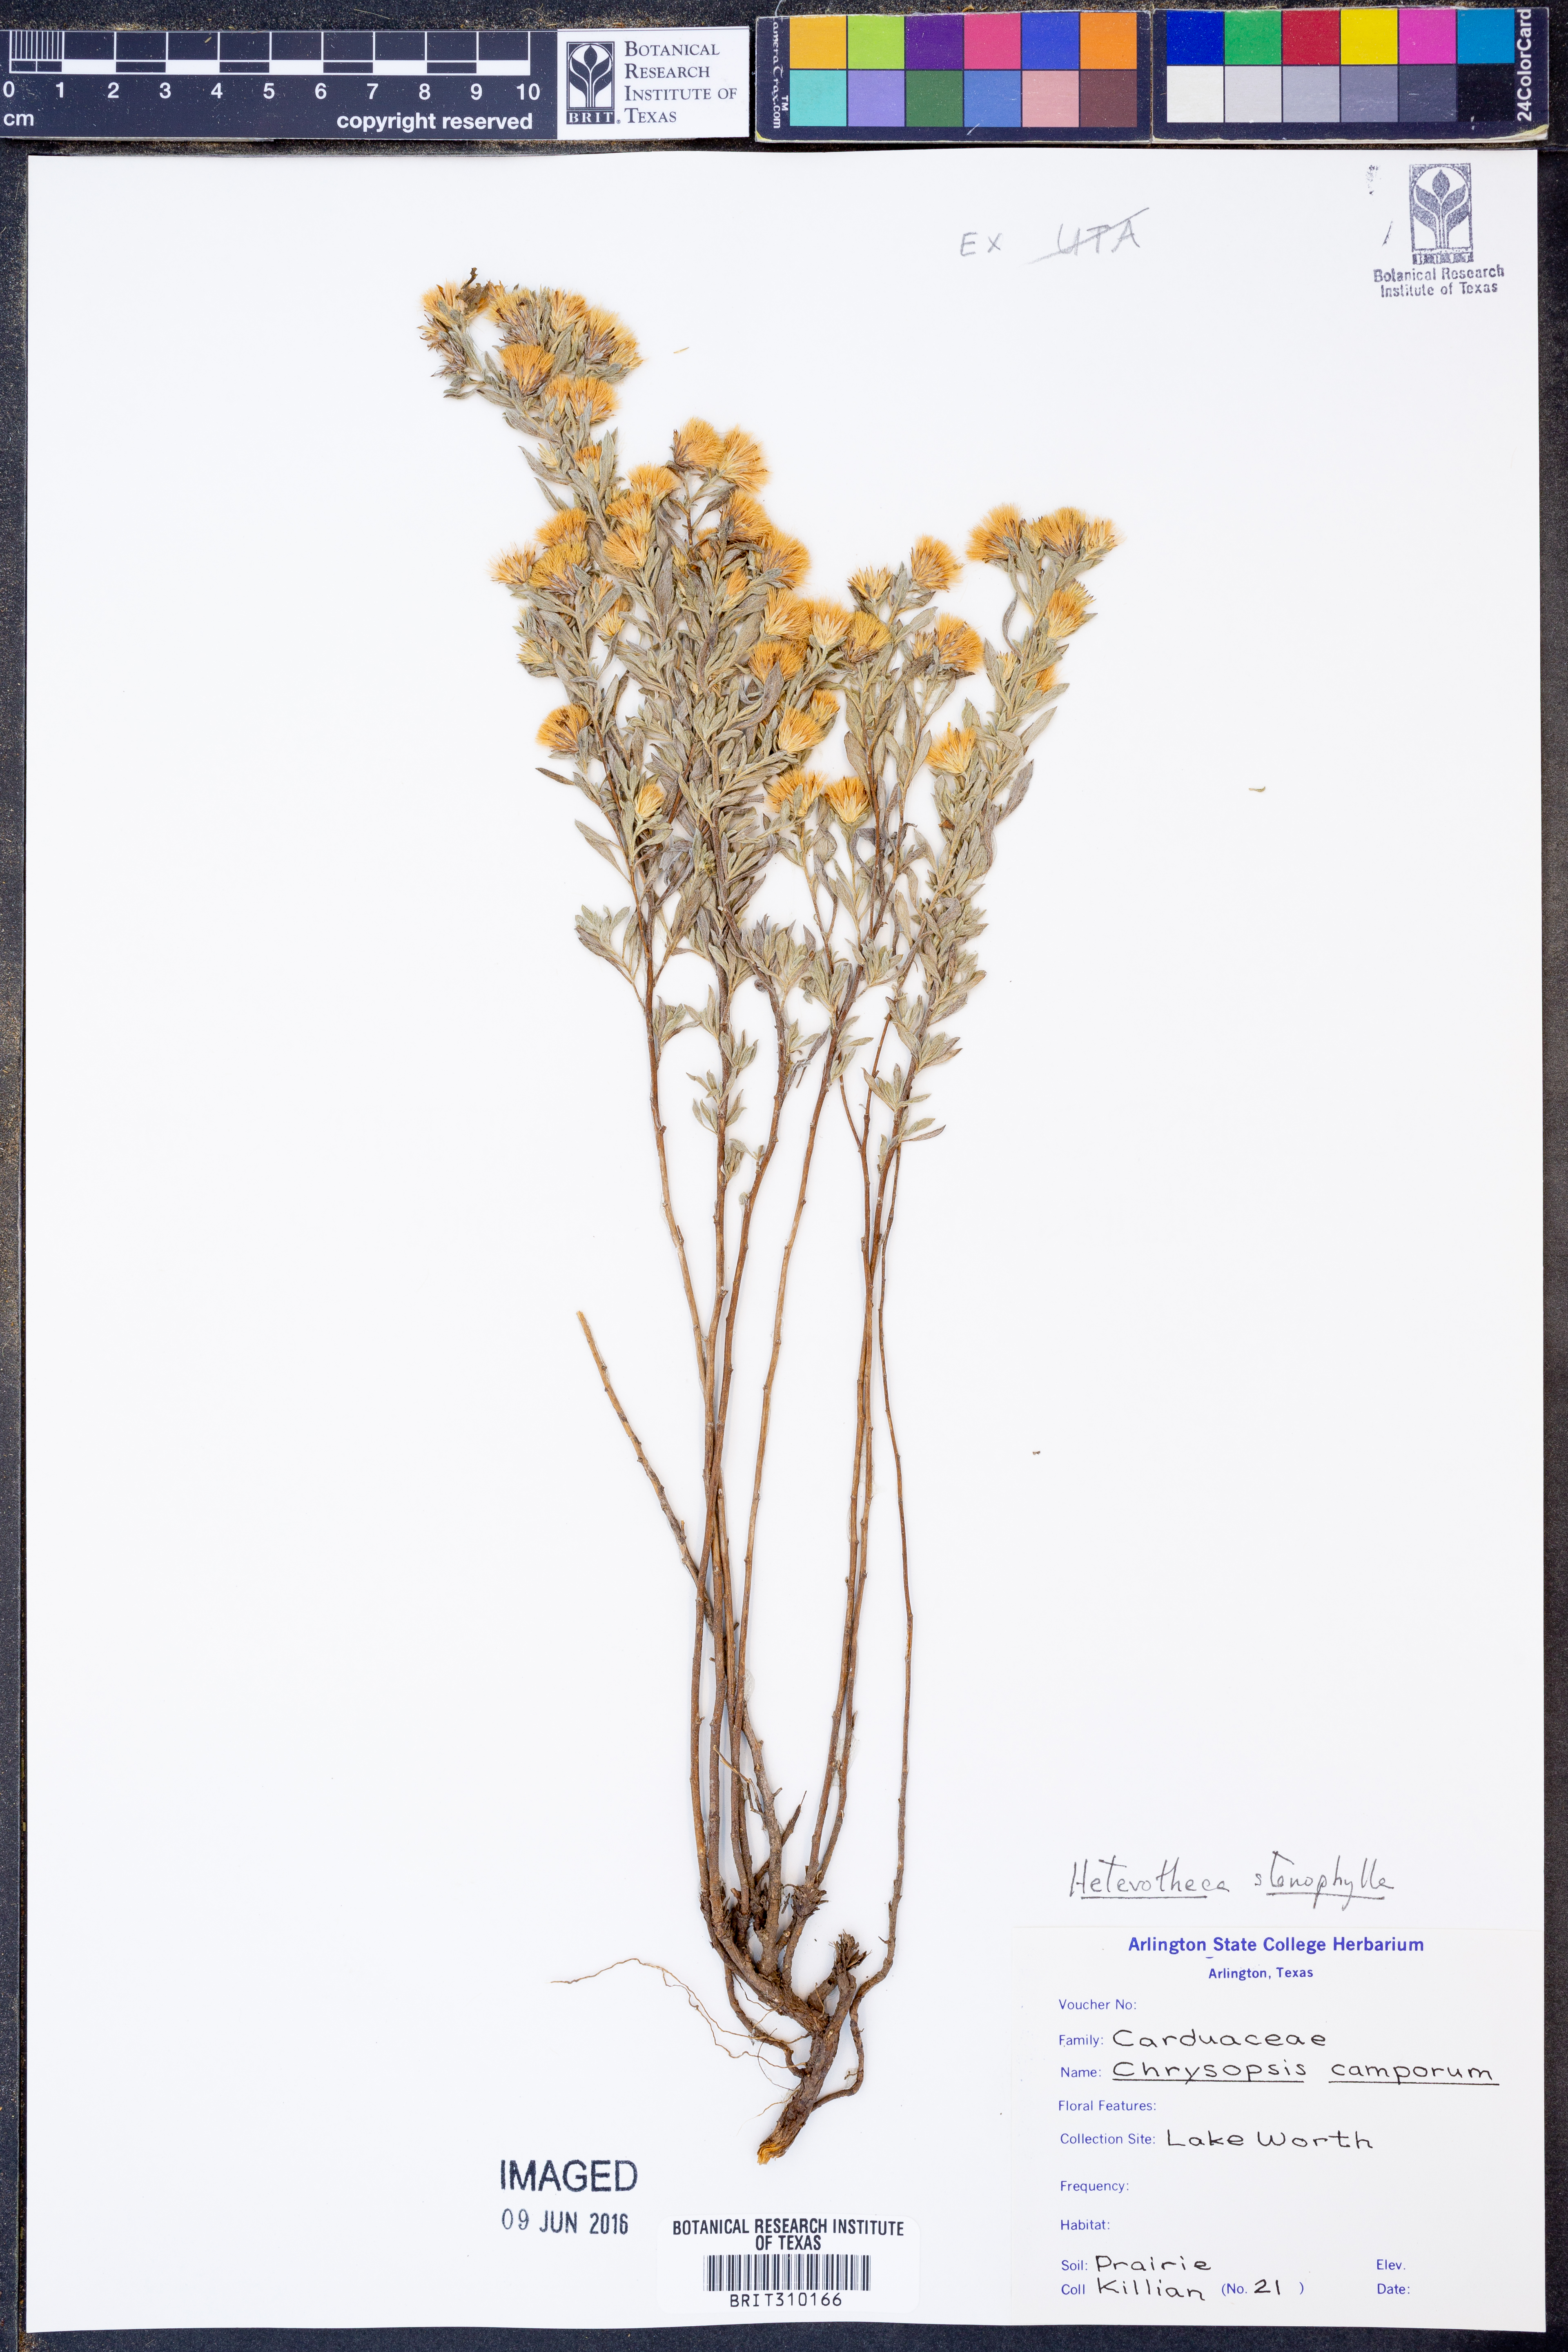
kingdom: Plantae
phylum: Tracheophyta
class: Magnoliopsida
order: Asterales
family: Asteraceae
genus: Heterotheca
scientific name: Heterotheca stenophylla
